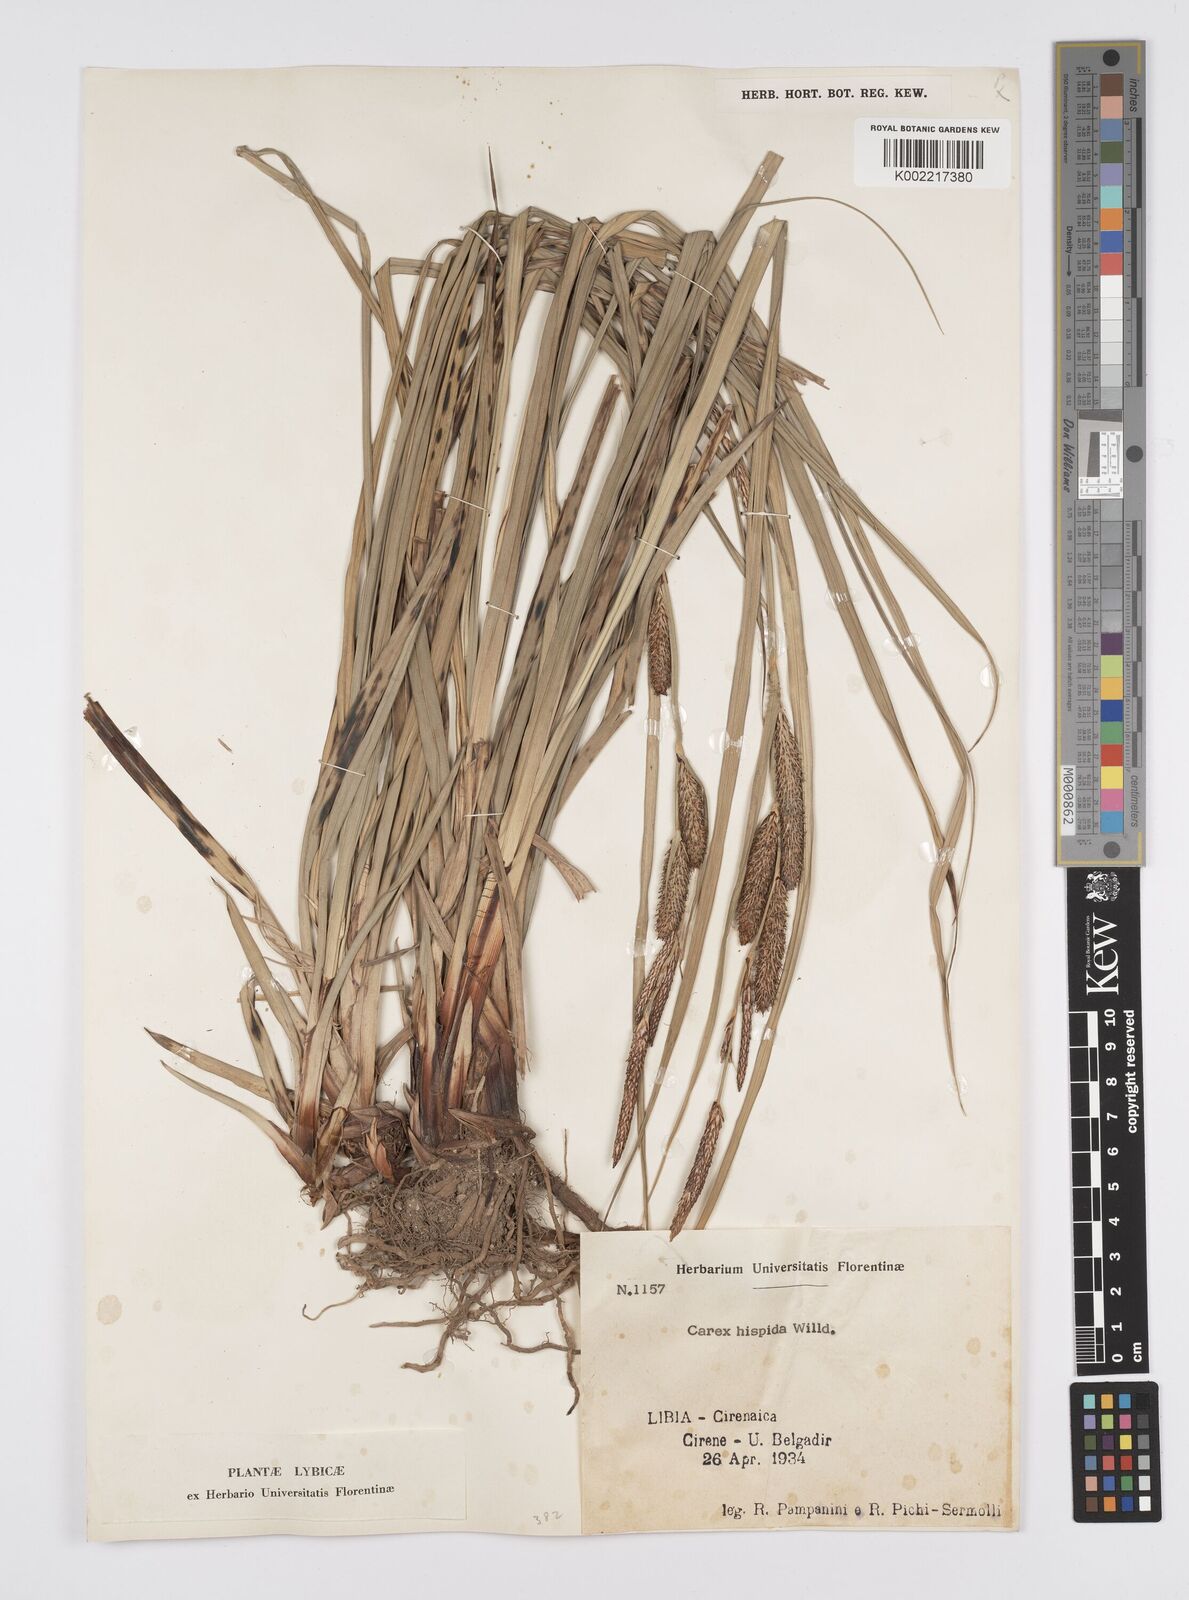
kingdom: Plantae
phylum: Tracheophyta
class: Liliopsida
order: Poales
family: Cyperaceae
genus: Carex
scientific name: Carex hispida
